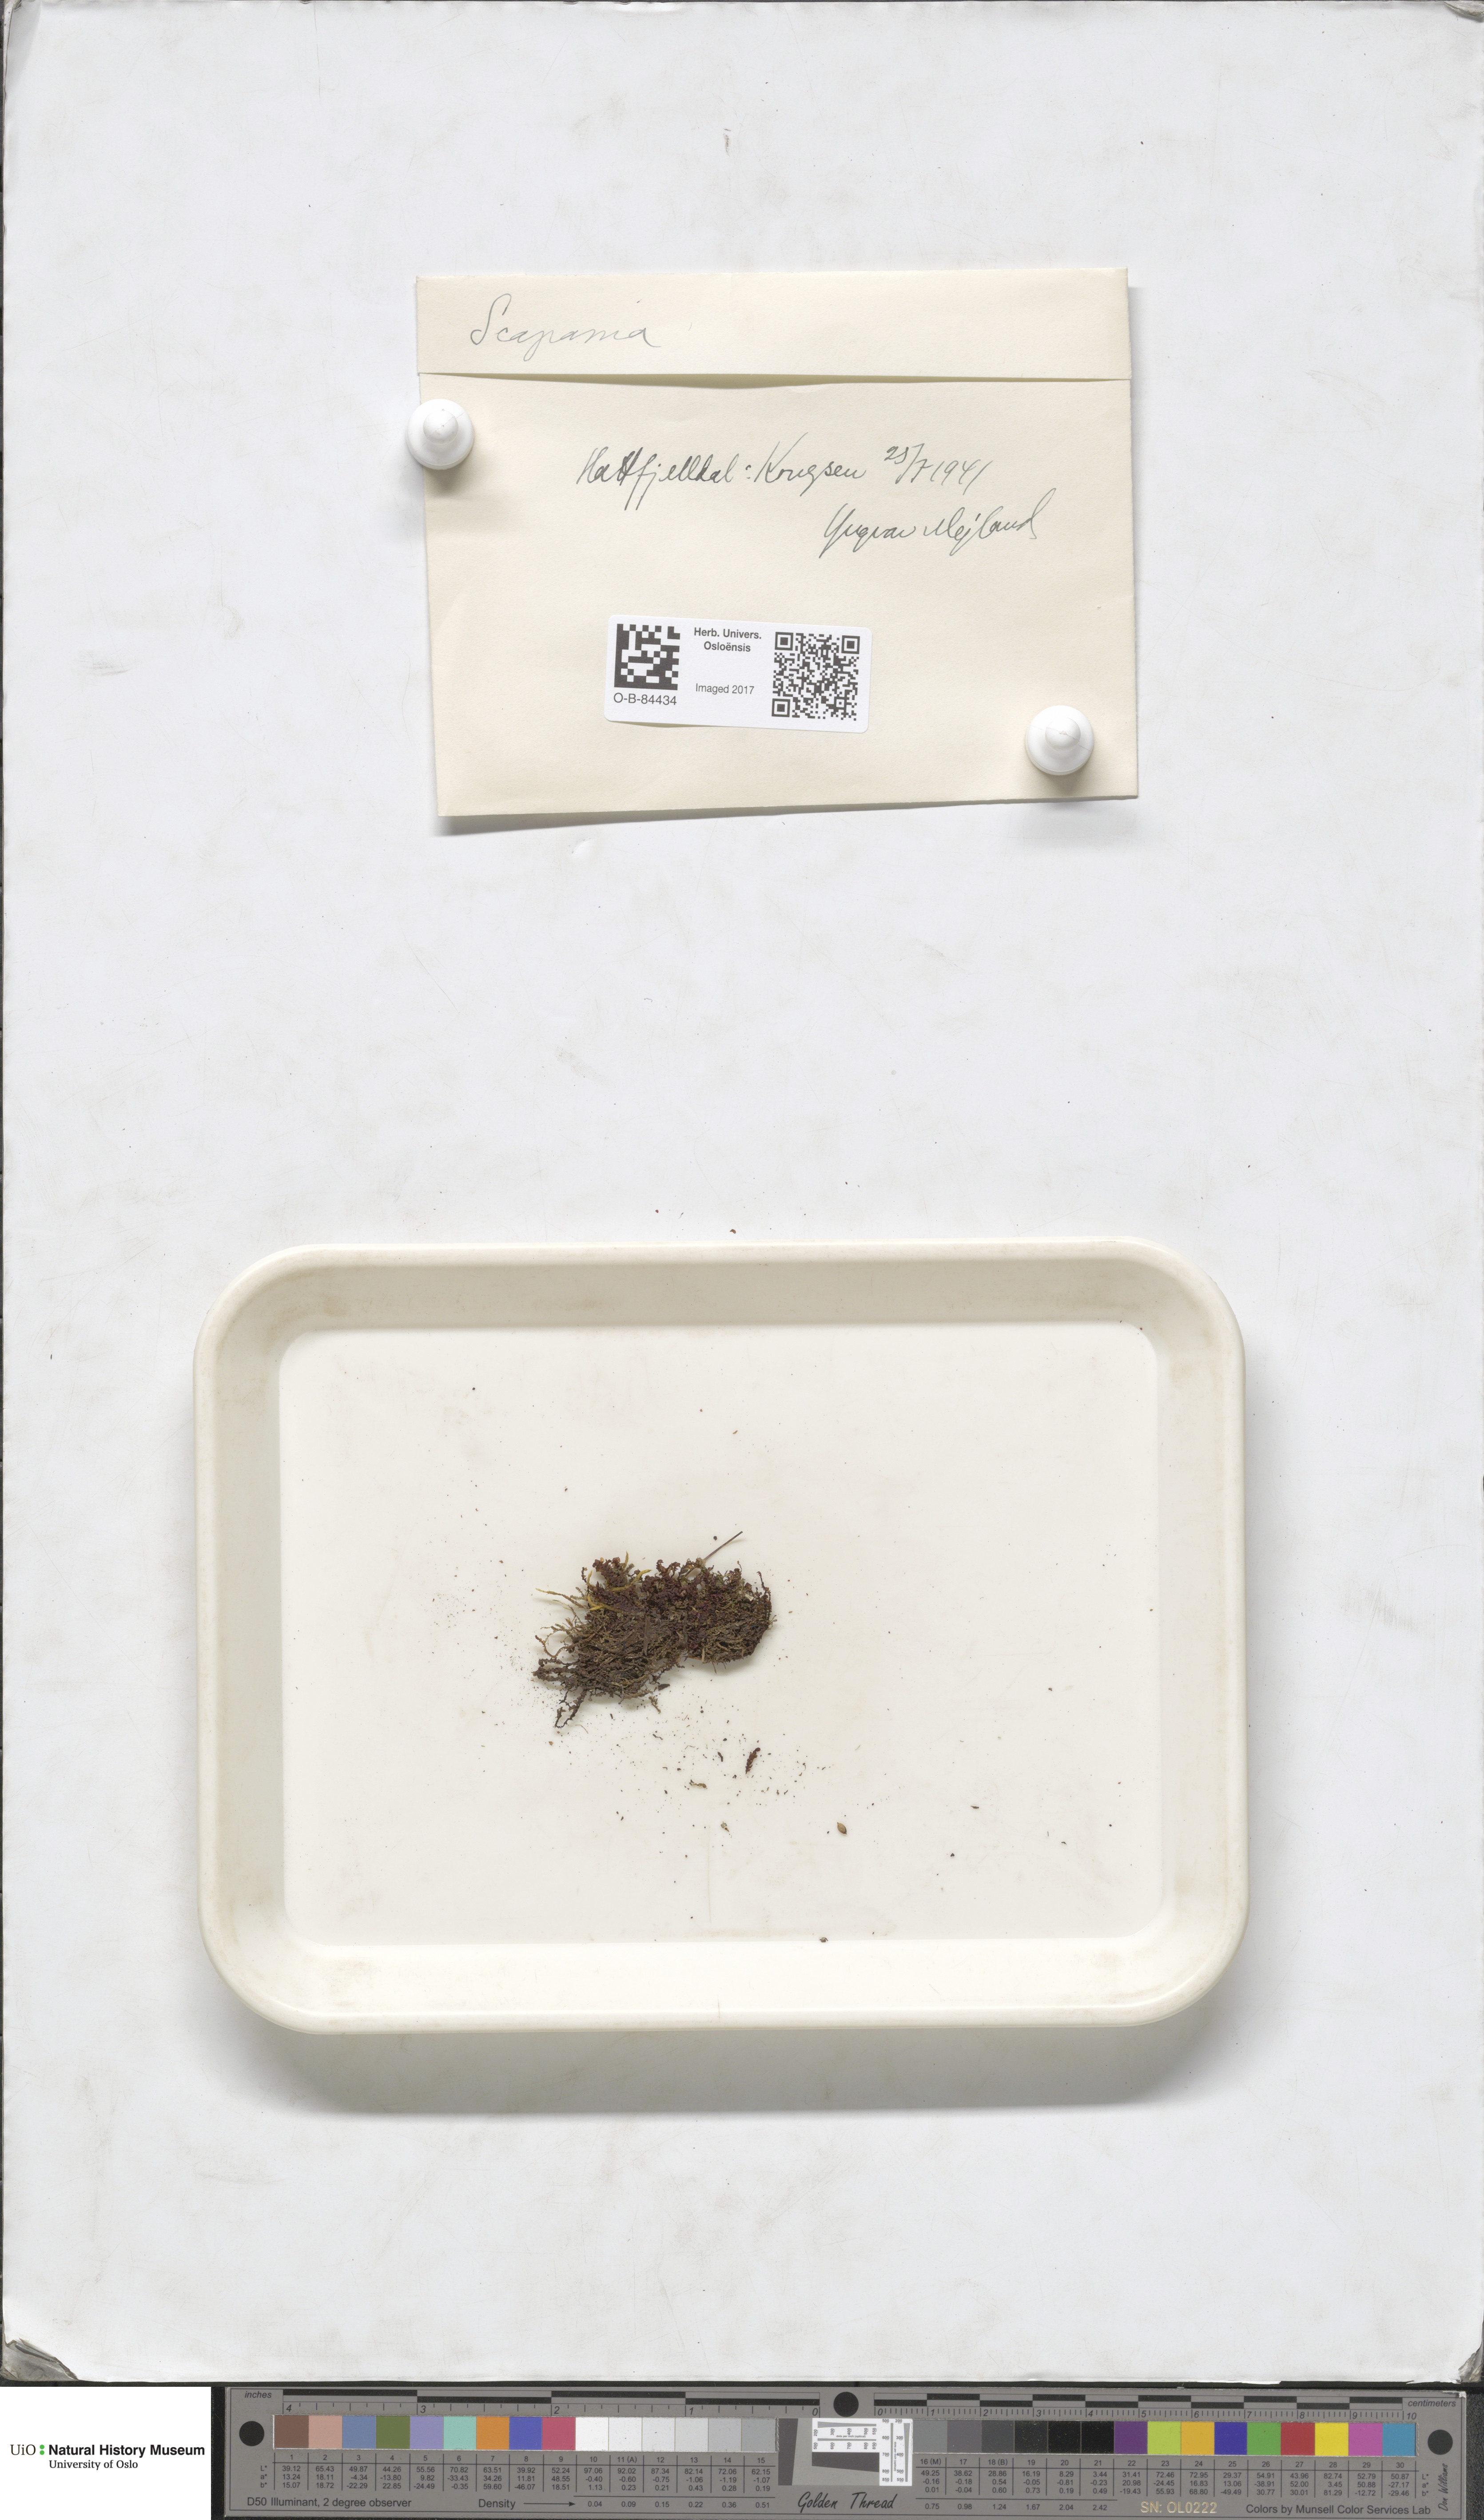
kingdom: Plantae
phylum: Marchantiophyta
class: Jungermanniopsida
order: Jungermanniales
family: Scapaniaceae
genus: Scapania
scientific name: Scapania
